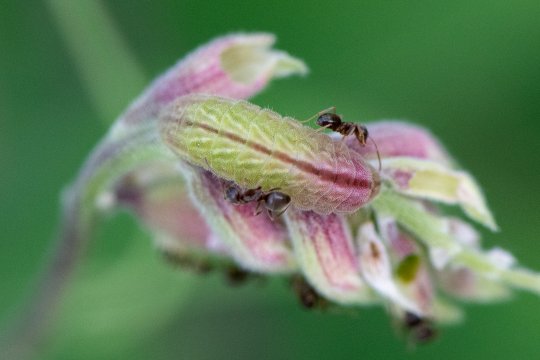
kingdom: Animalia
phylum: Arthropoda
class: Insecta
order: Lepidoptera
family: Lycaenidae
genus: Glaucopsyche
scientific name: Glaucopsyche lygdamus
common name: Silvery Blue
